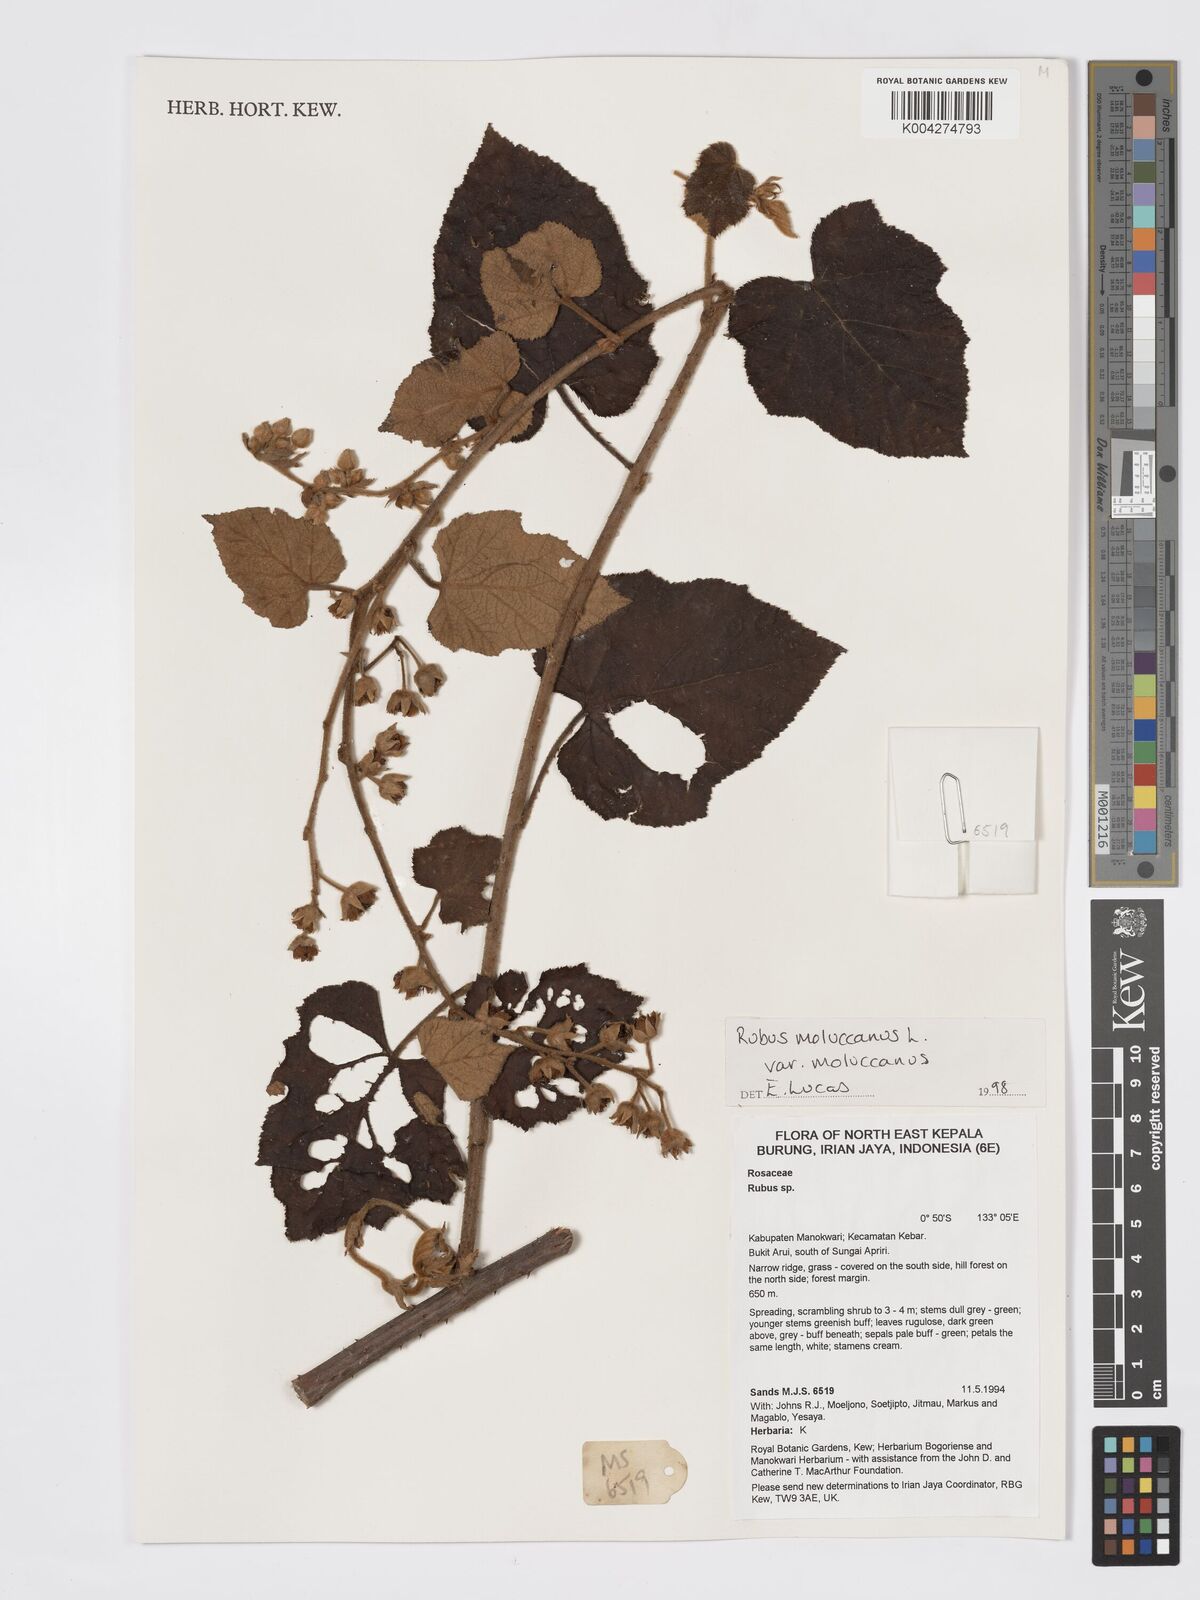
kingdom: Plantae
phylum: Tracheophyta
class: Magnoliopsida
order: Rosales
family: Rosaceae
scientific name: Rosaceae
